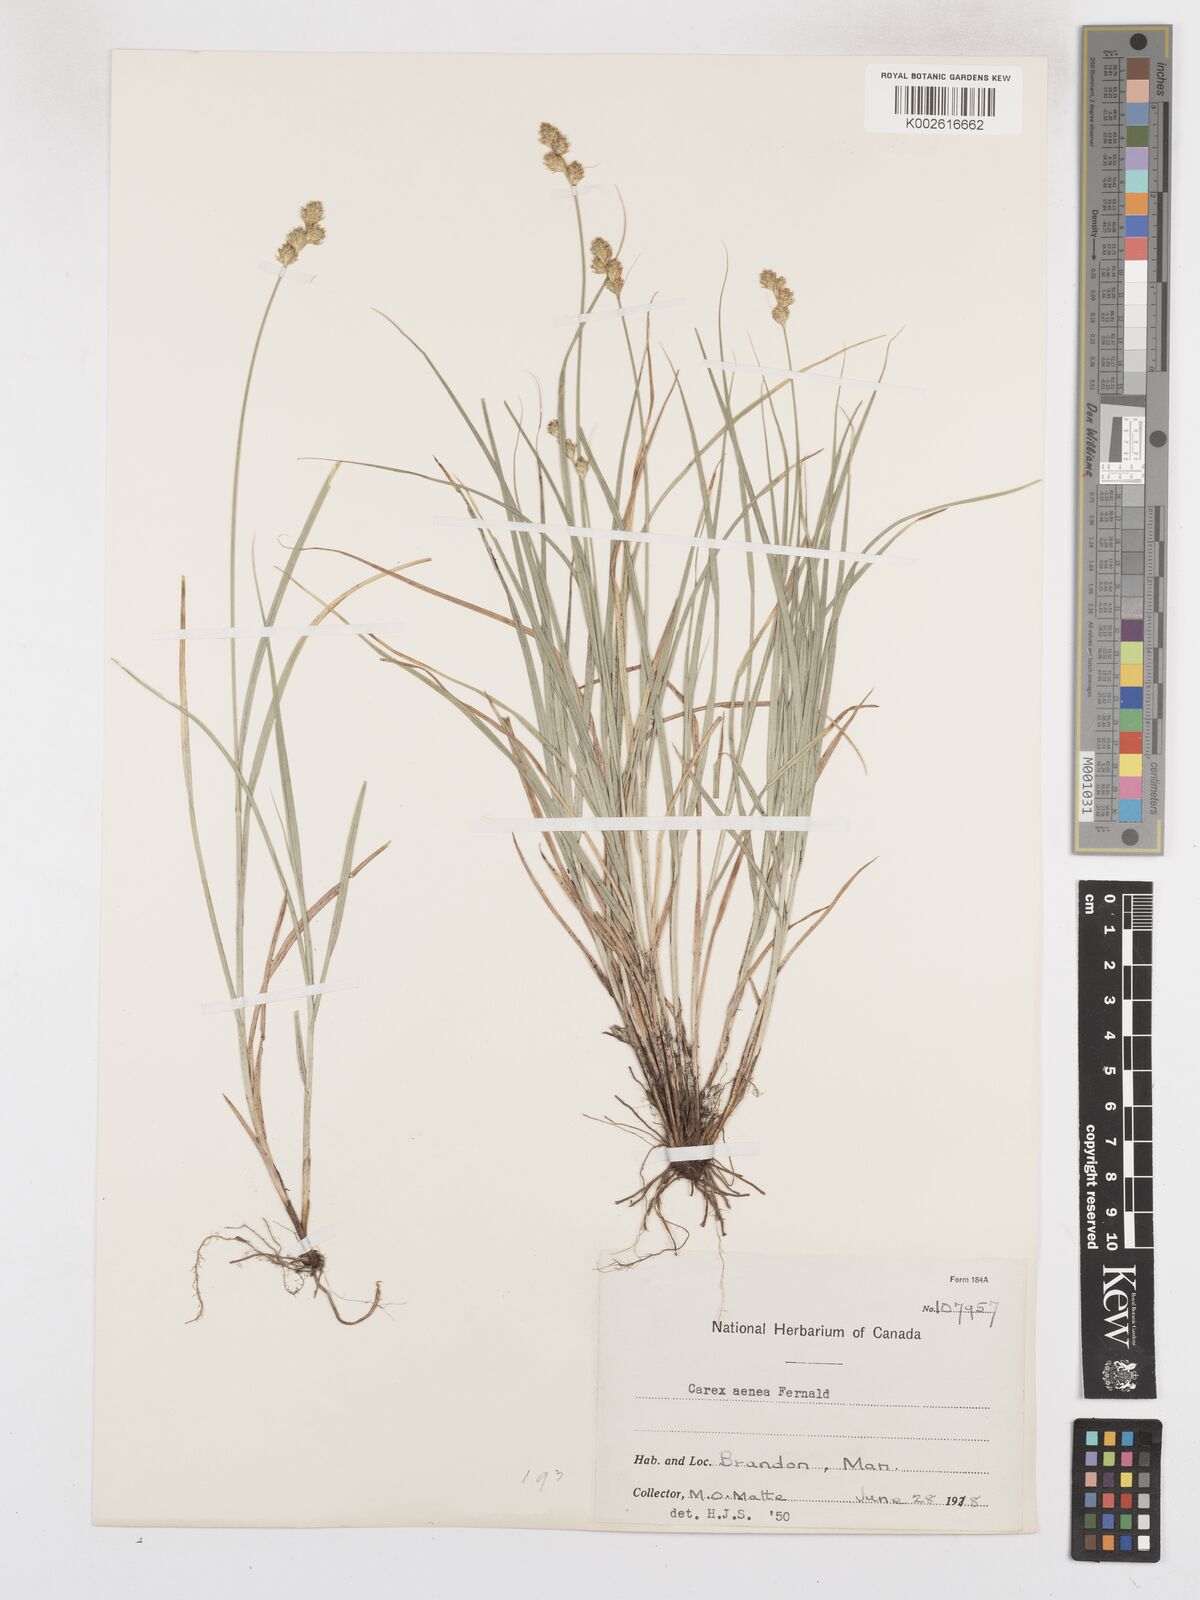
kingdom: Plantae
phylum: Tracheophyta
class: Liliopsida
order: Poales
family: Cyperaceae
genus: Carex
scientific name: Carex foenea
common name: Bronze sedge
